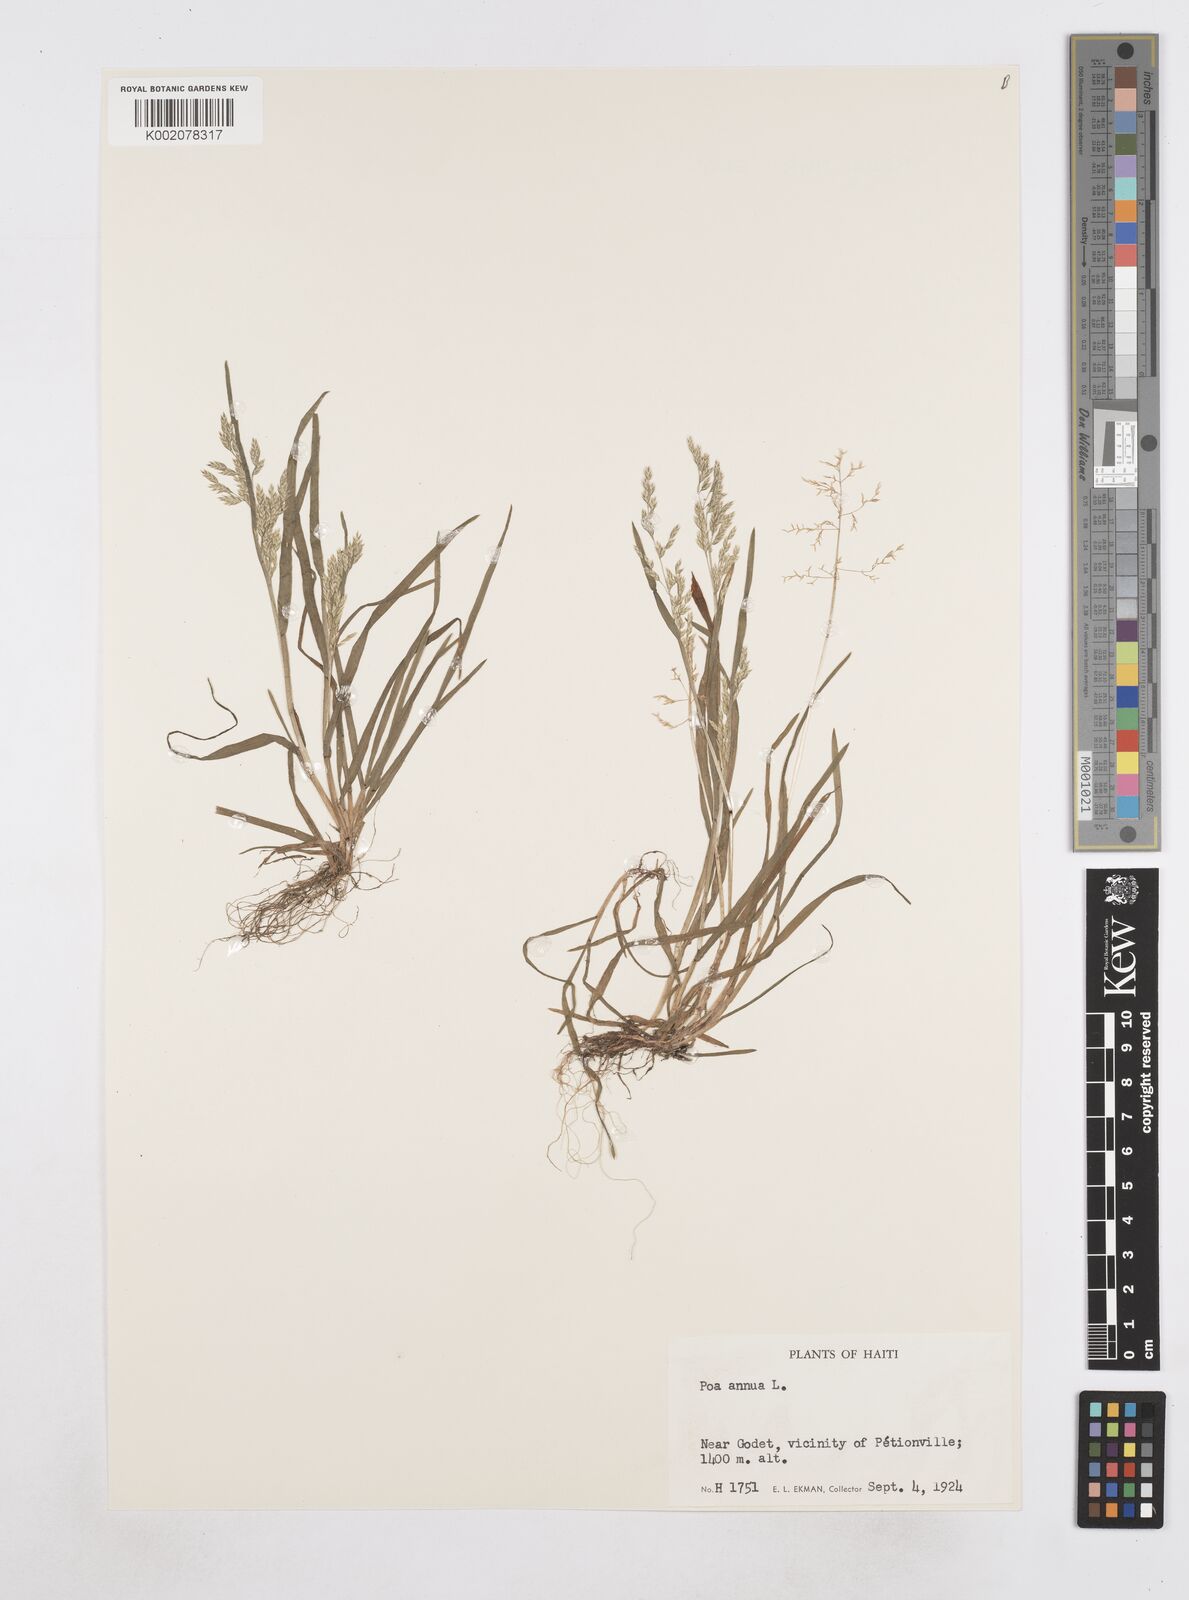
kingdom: Plantae
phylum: Tracheophyta
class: Liliopsida
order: Poales
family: Poaceae
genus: Poa
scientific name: Poa annua
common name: Annual bluegrass
